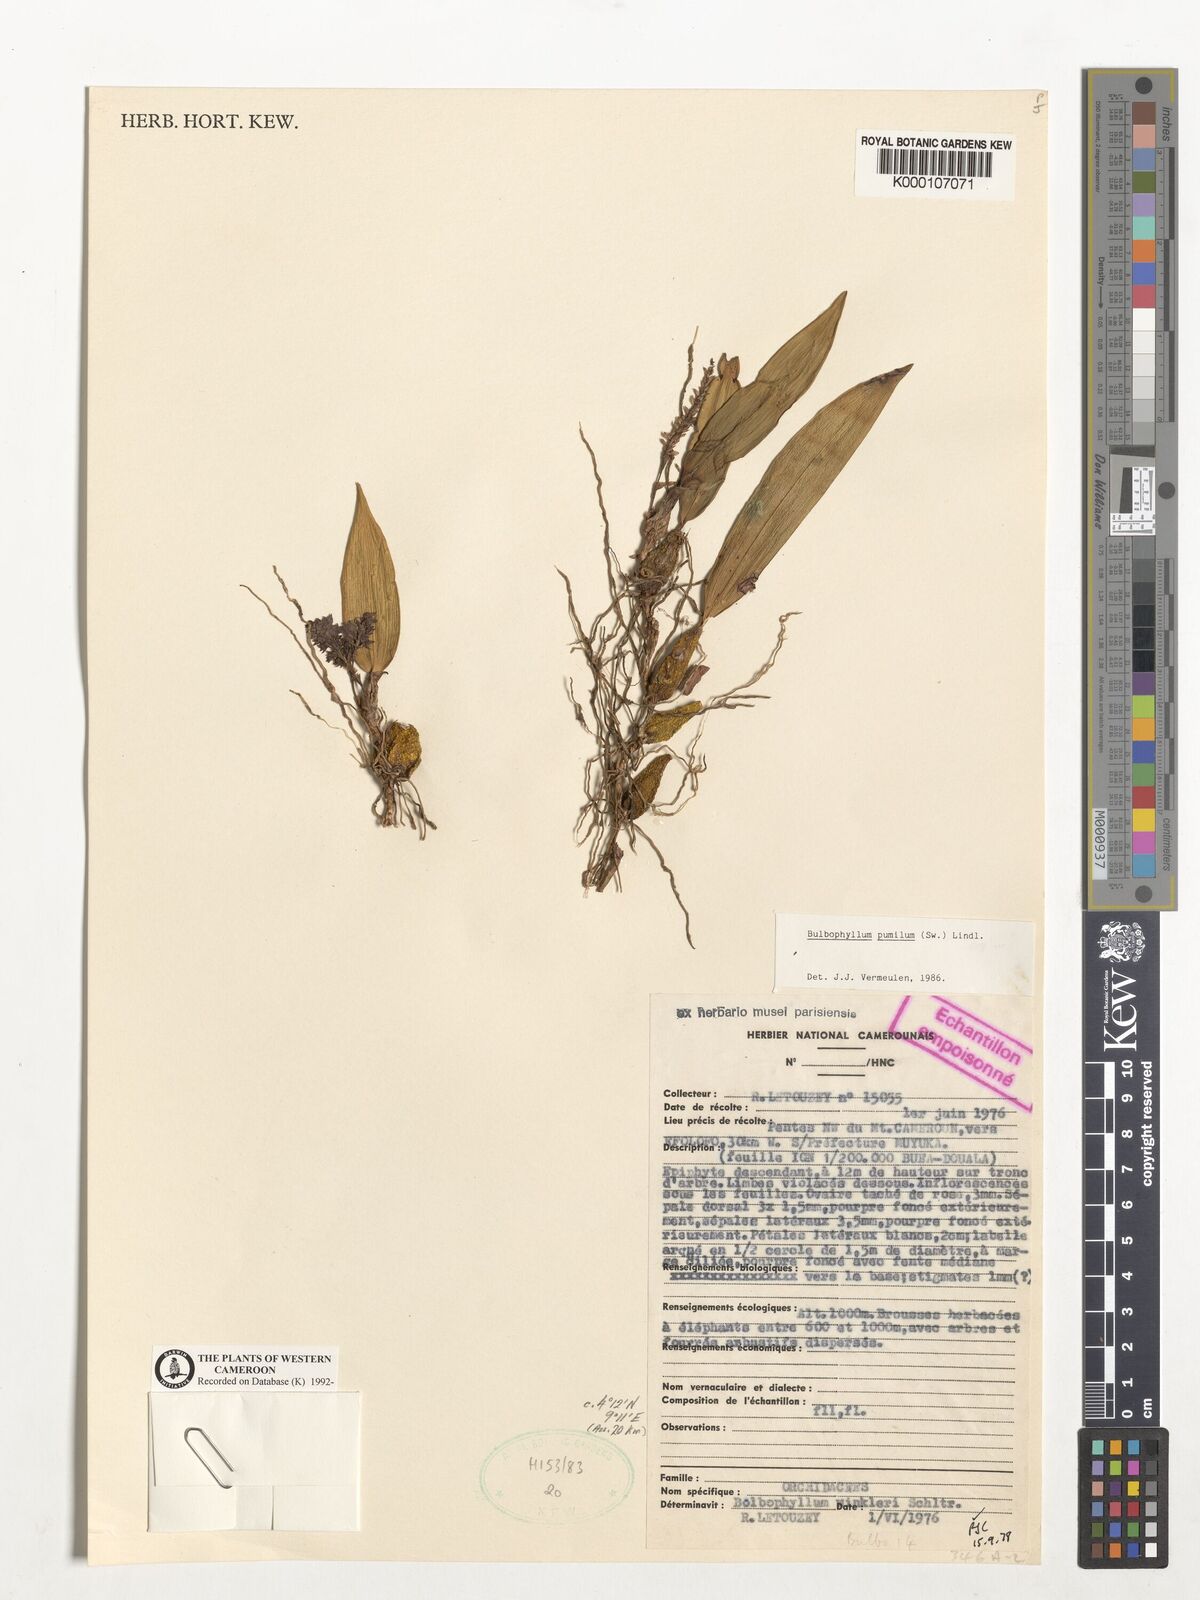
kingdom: Plantae
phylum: Tracheophyta
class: Liliopsida
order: Asparagales
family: Orchidaceae
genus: Bulbophyllum
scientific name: Bulbophyllum pumilum
